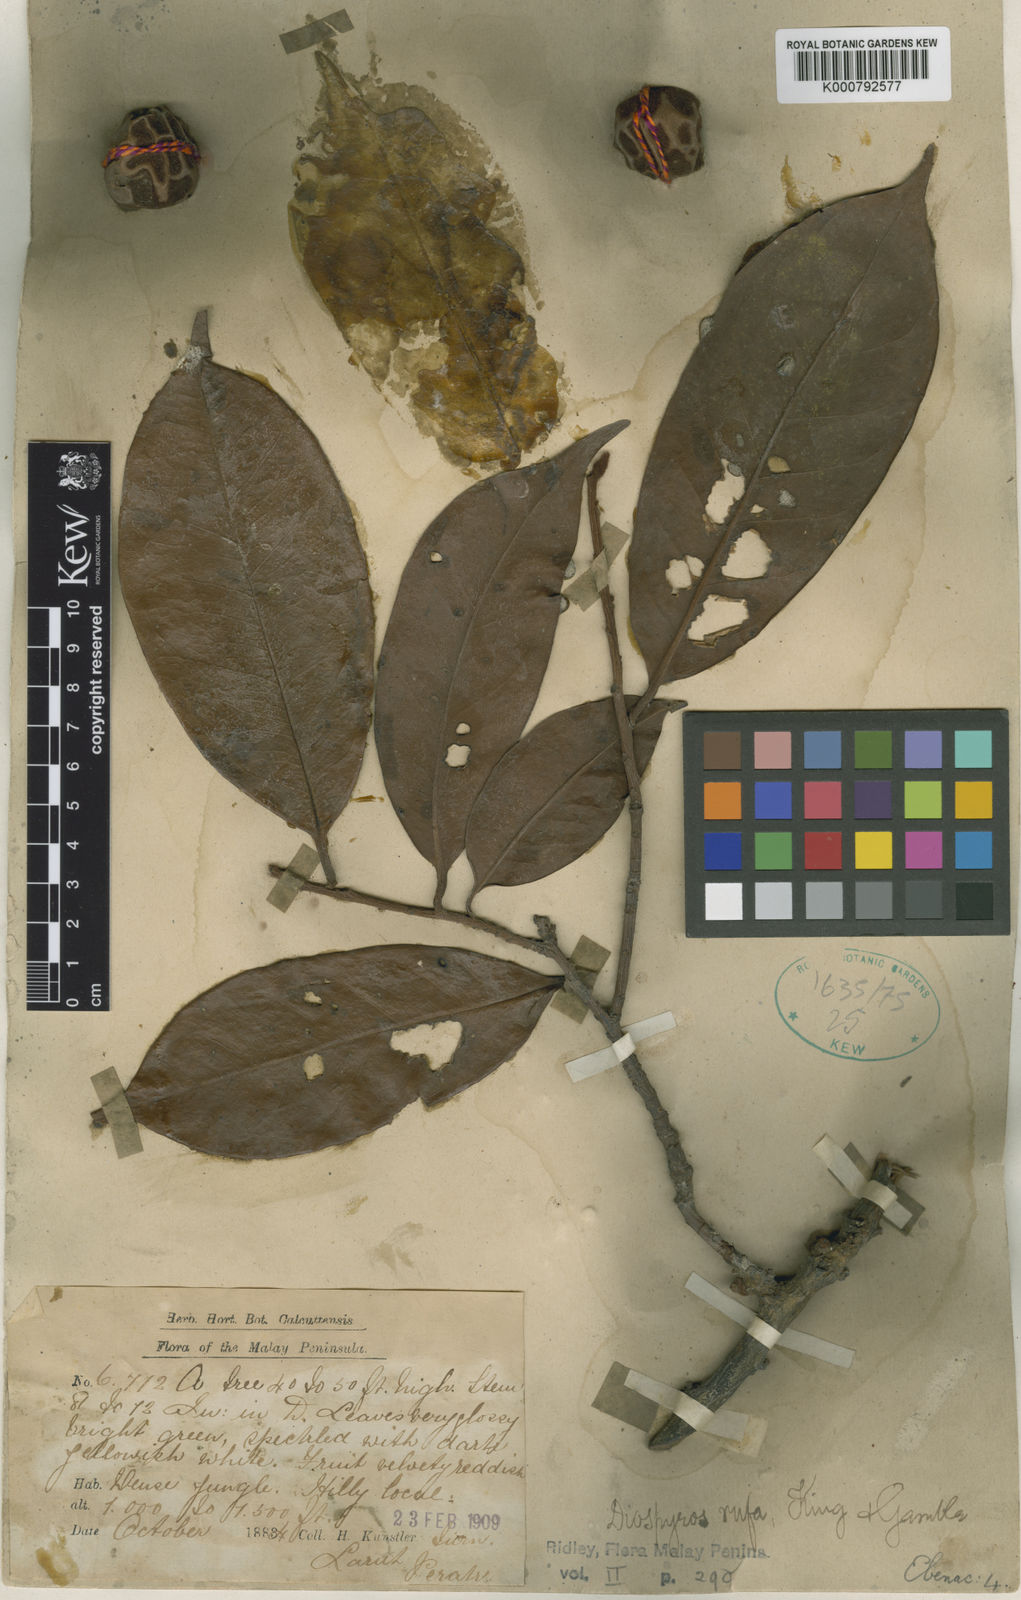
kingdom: Plantae
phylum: Tracheophyta
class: Magnoliopsida
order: Ericales
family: Ebenaceae
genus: Diospyros
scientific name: Diospyros rufa
